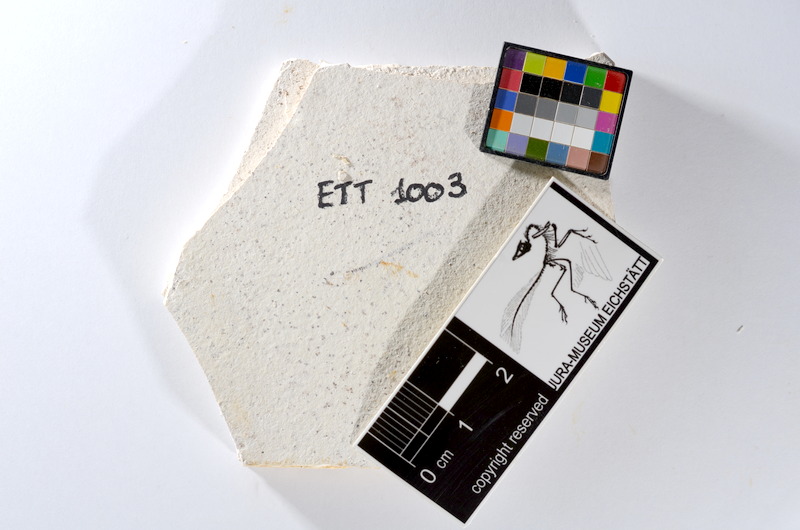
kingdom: Animalia
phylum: Chordata
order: Salmoniformes
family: Orthogonikleithridae
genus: Orthogonikleithrus
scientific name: Orthogonikleithrus hoelli
